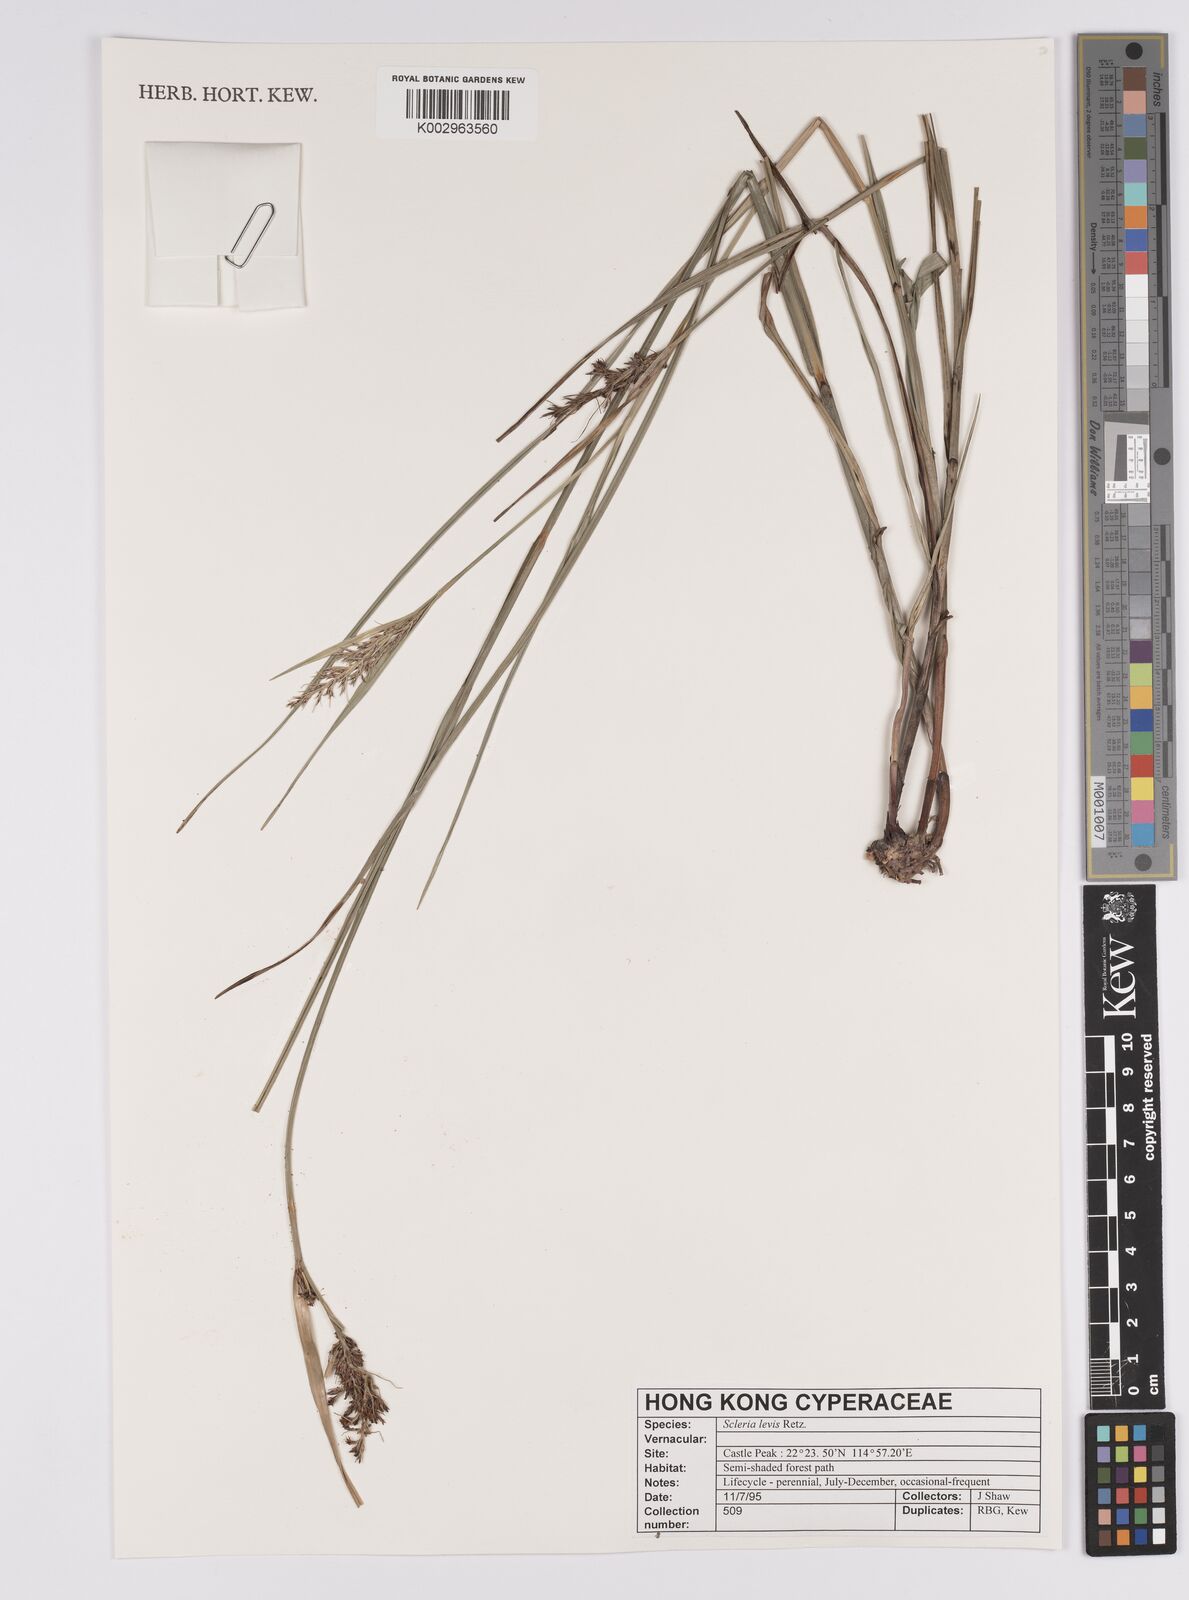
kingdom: Plantae
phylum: Tracheophyta
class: Liliopsida
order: Poales
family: Cyperaceae
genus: Scleria
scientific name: Scleria levis
